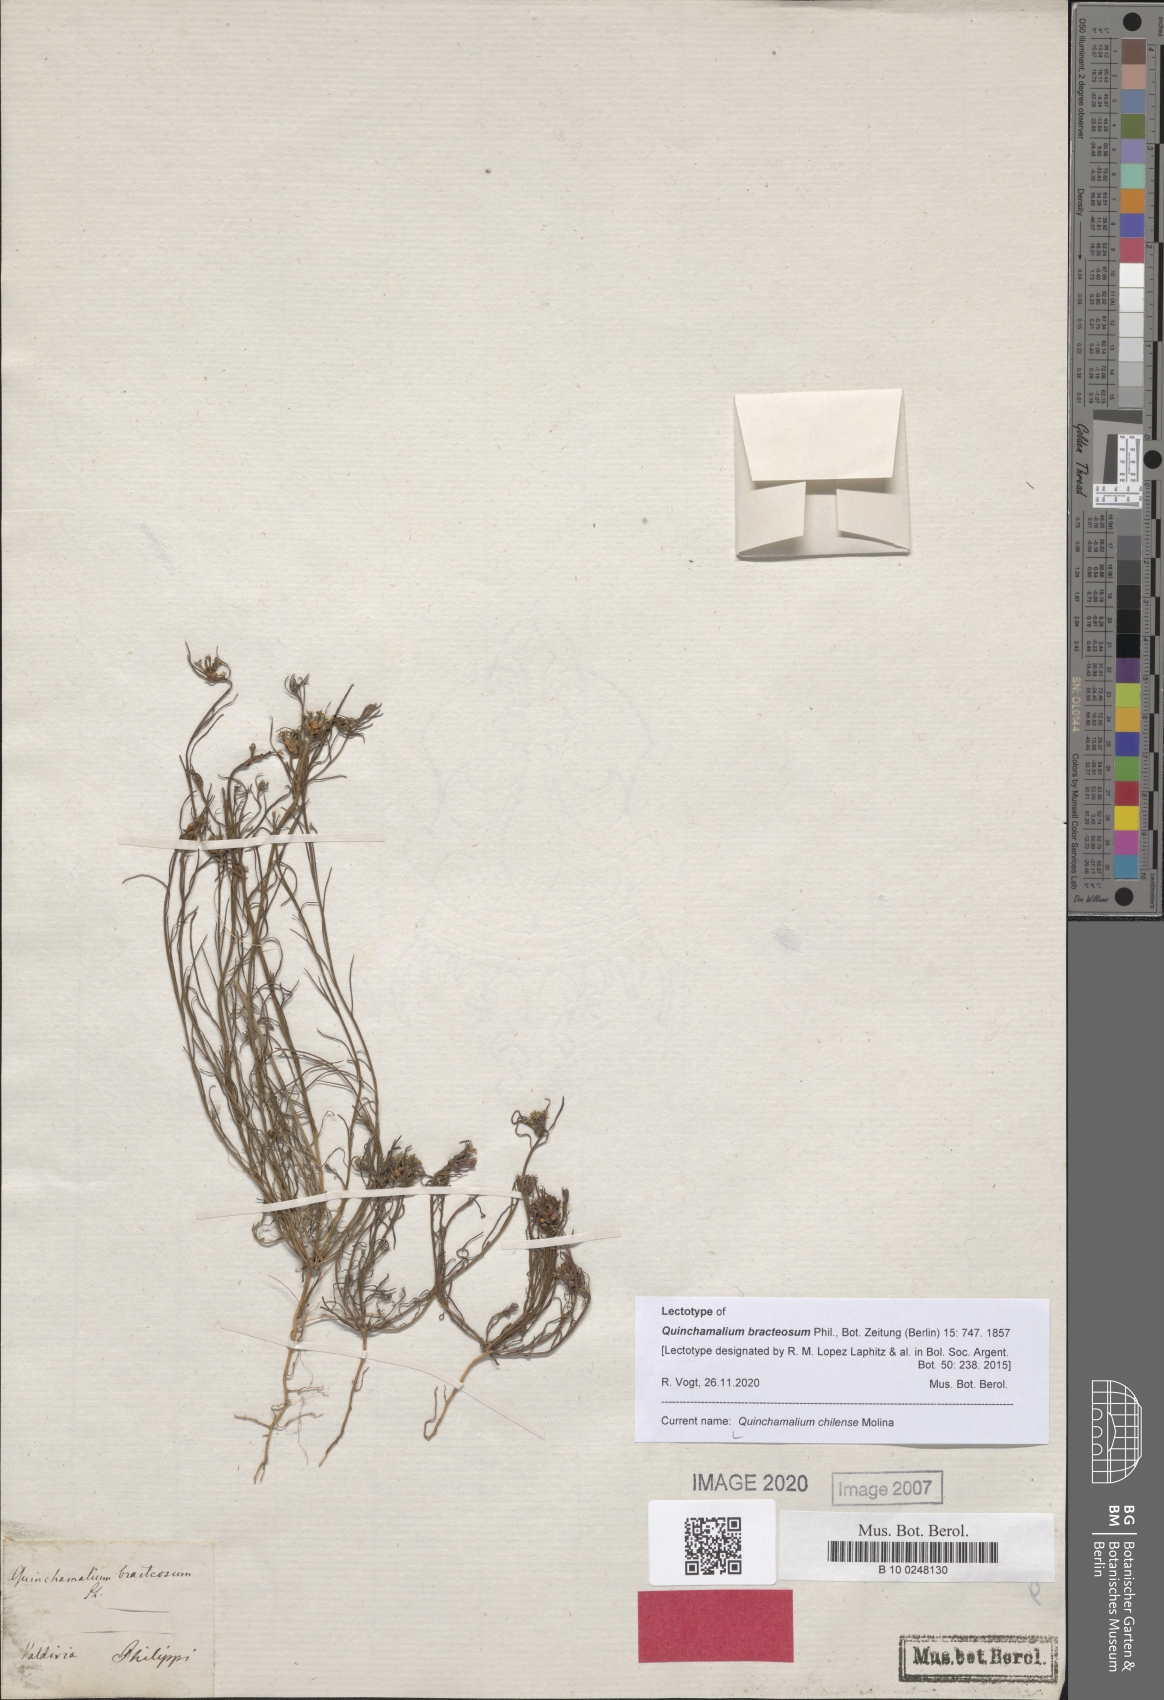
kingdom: Plantae
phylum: Tracheophyta
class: Magnoliopsida
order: Santalales
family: Schoepfiaceae
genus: Quinchamalium
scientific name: Quinchamalium chilense
